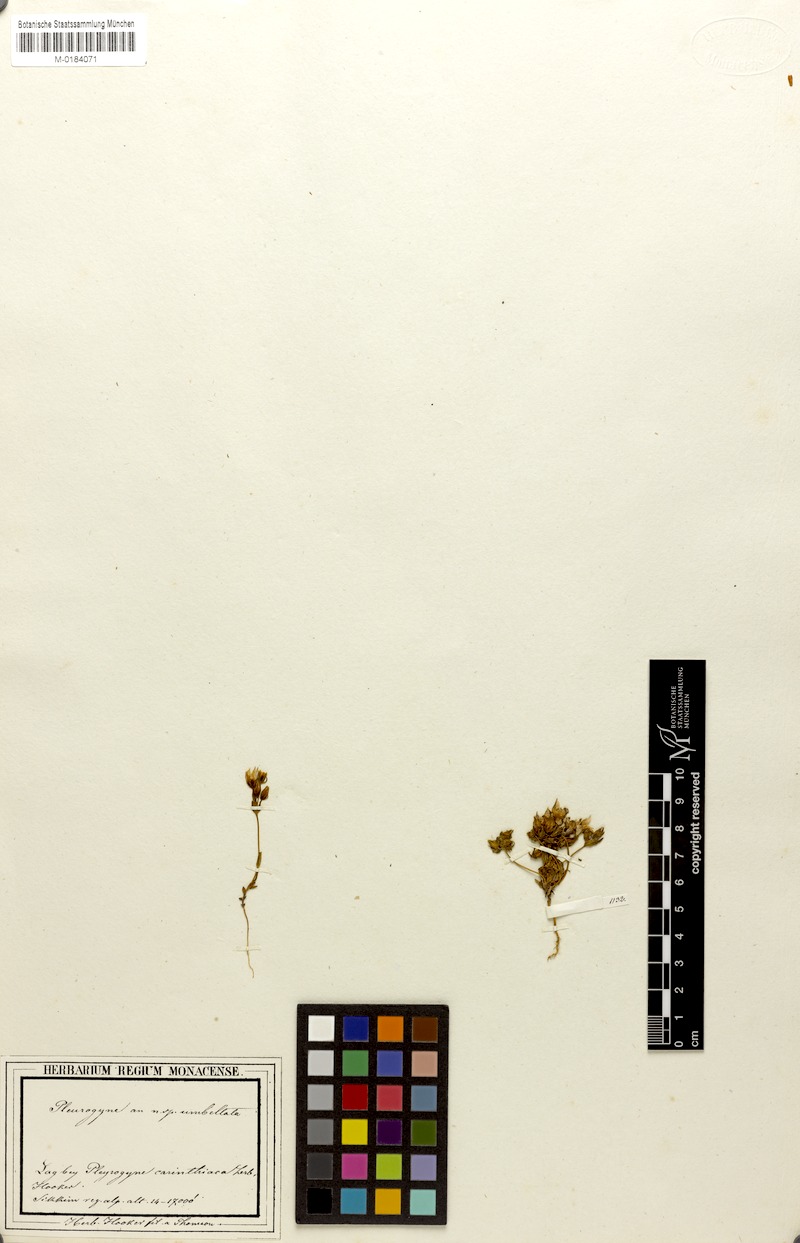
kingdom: Plantae
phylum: Tracheophyta
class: Magnoliopsida
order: Gentianales
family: Gentianaceae
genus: Lomatogonium
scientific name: Lomatogonium
